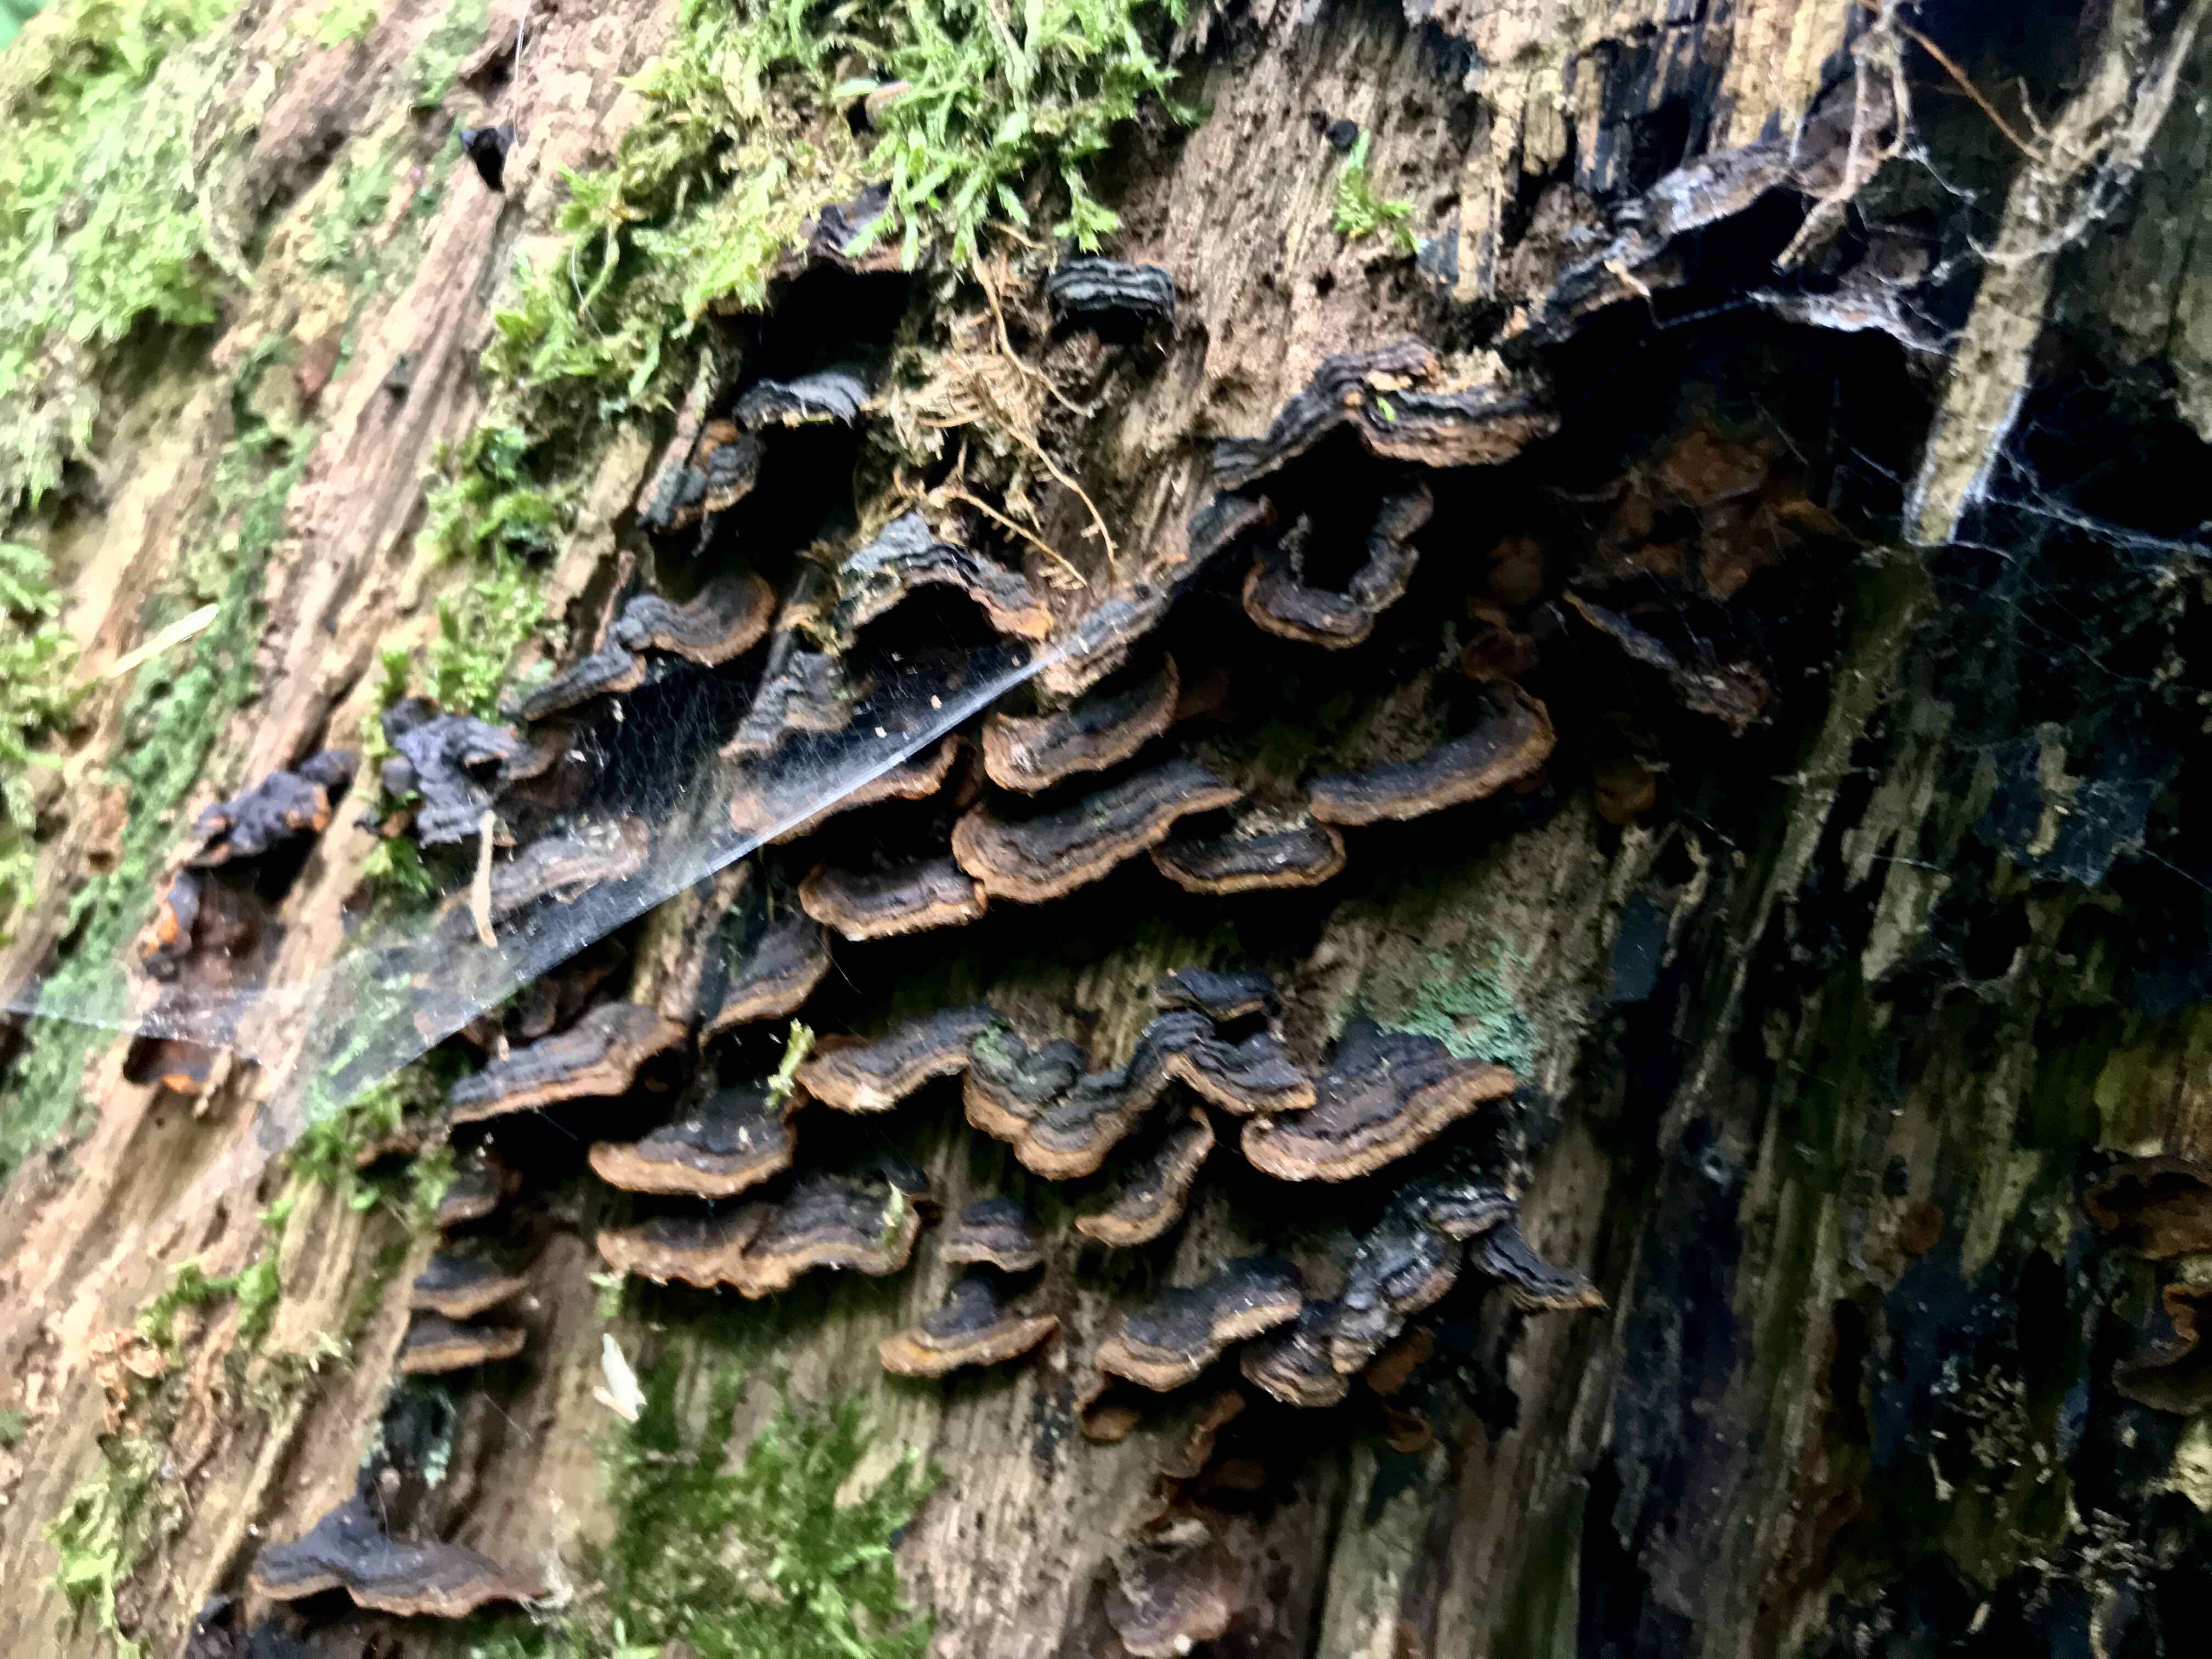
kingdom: Fungi
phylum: Basidiomycota
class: Agaricomycetes
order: Hymenochaetales
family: Hymenochaetaceae
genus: Hymenochaete
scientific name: Hymenochaete rubiginosa
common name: stiv ruslædersvamp
